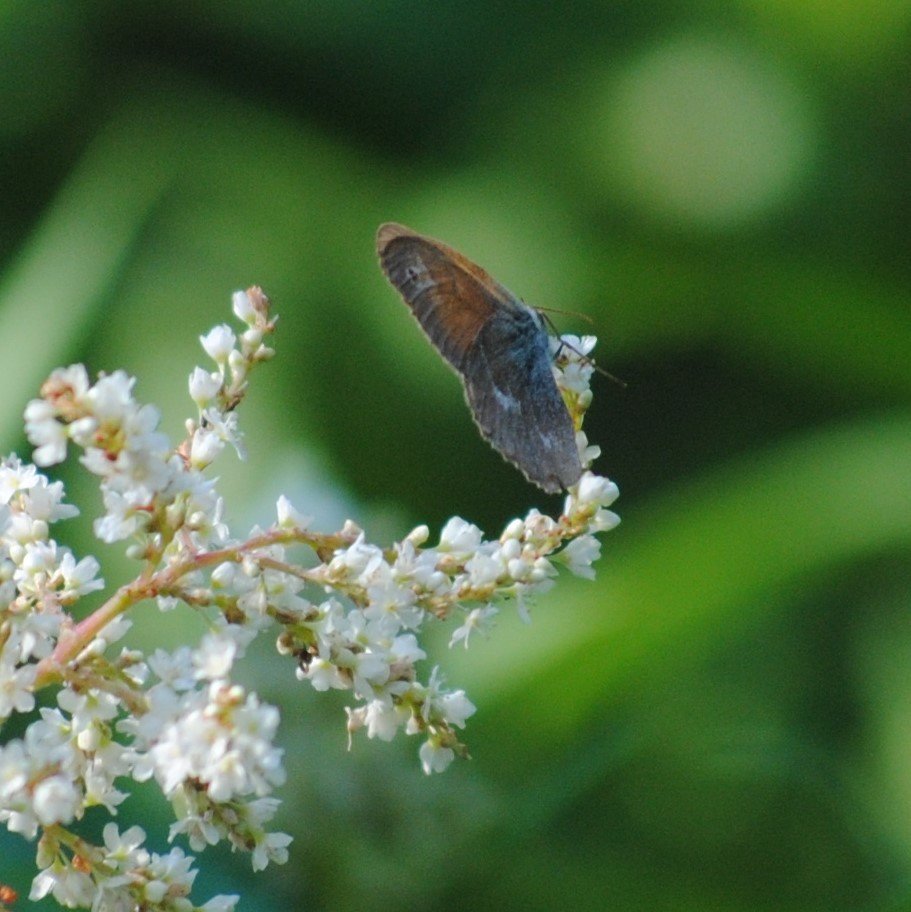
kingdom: Animalia
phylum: Arthropoda
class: Insecta
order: Lepidoptera
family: Nymphalidae
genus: Coenonympha
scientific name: Coenonympha tullia
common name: Large Heath
